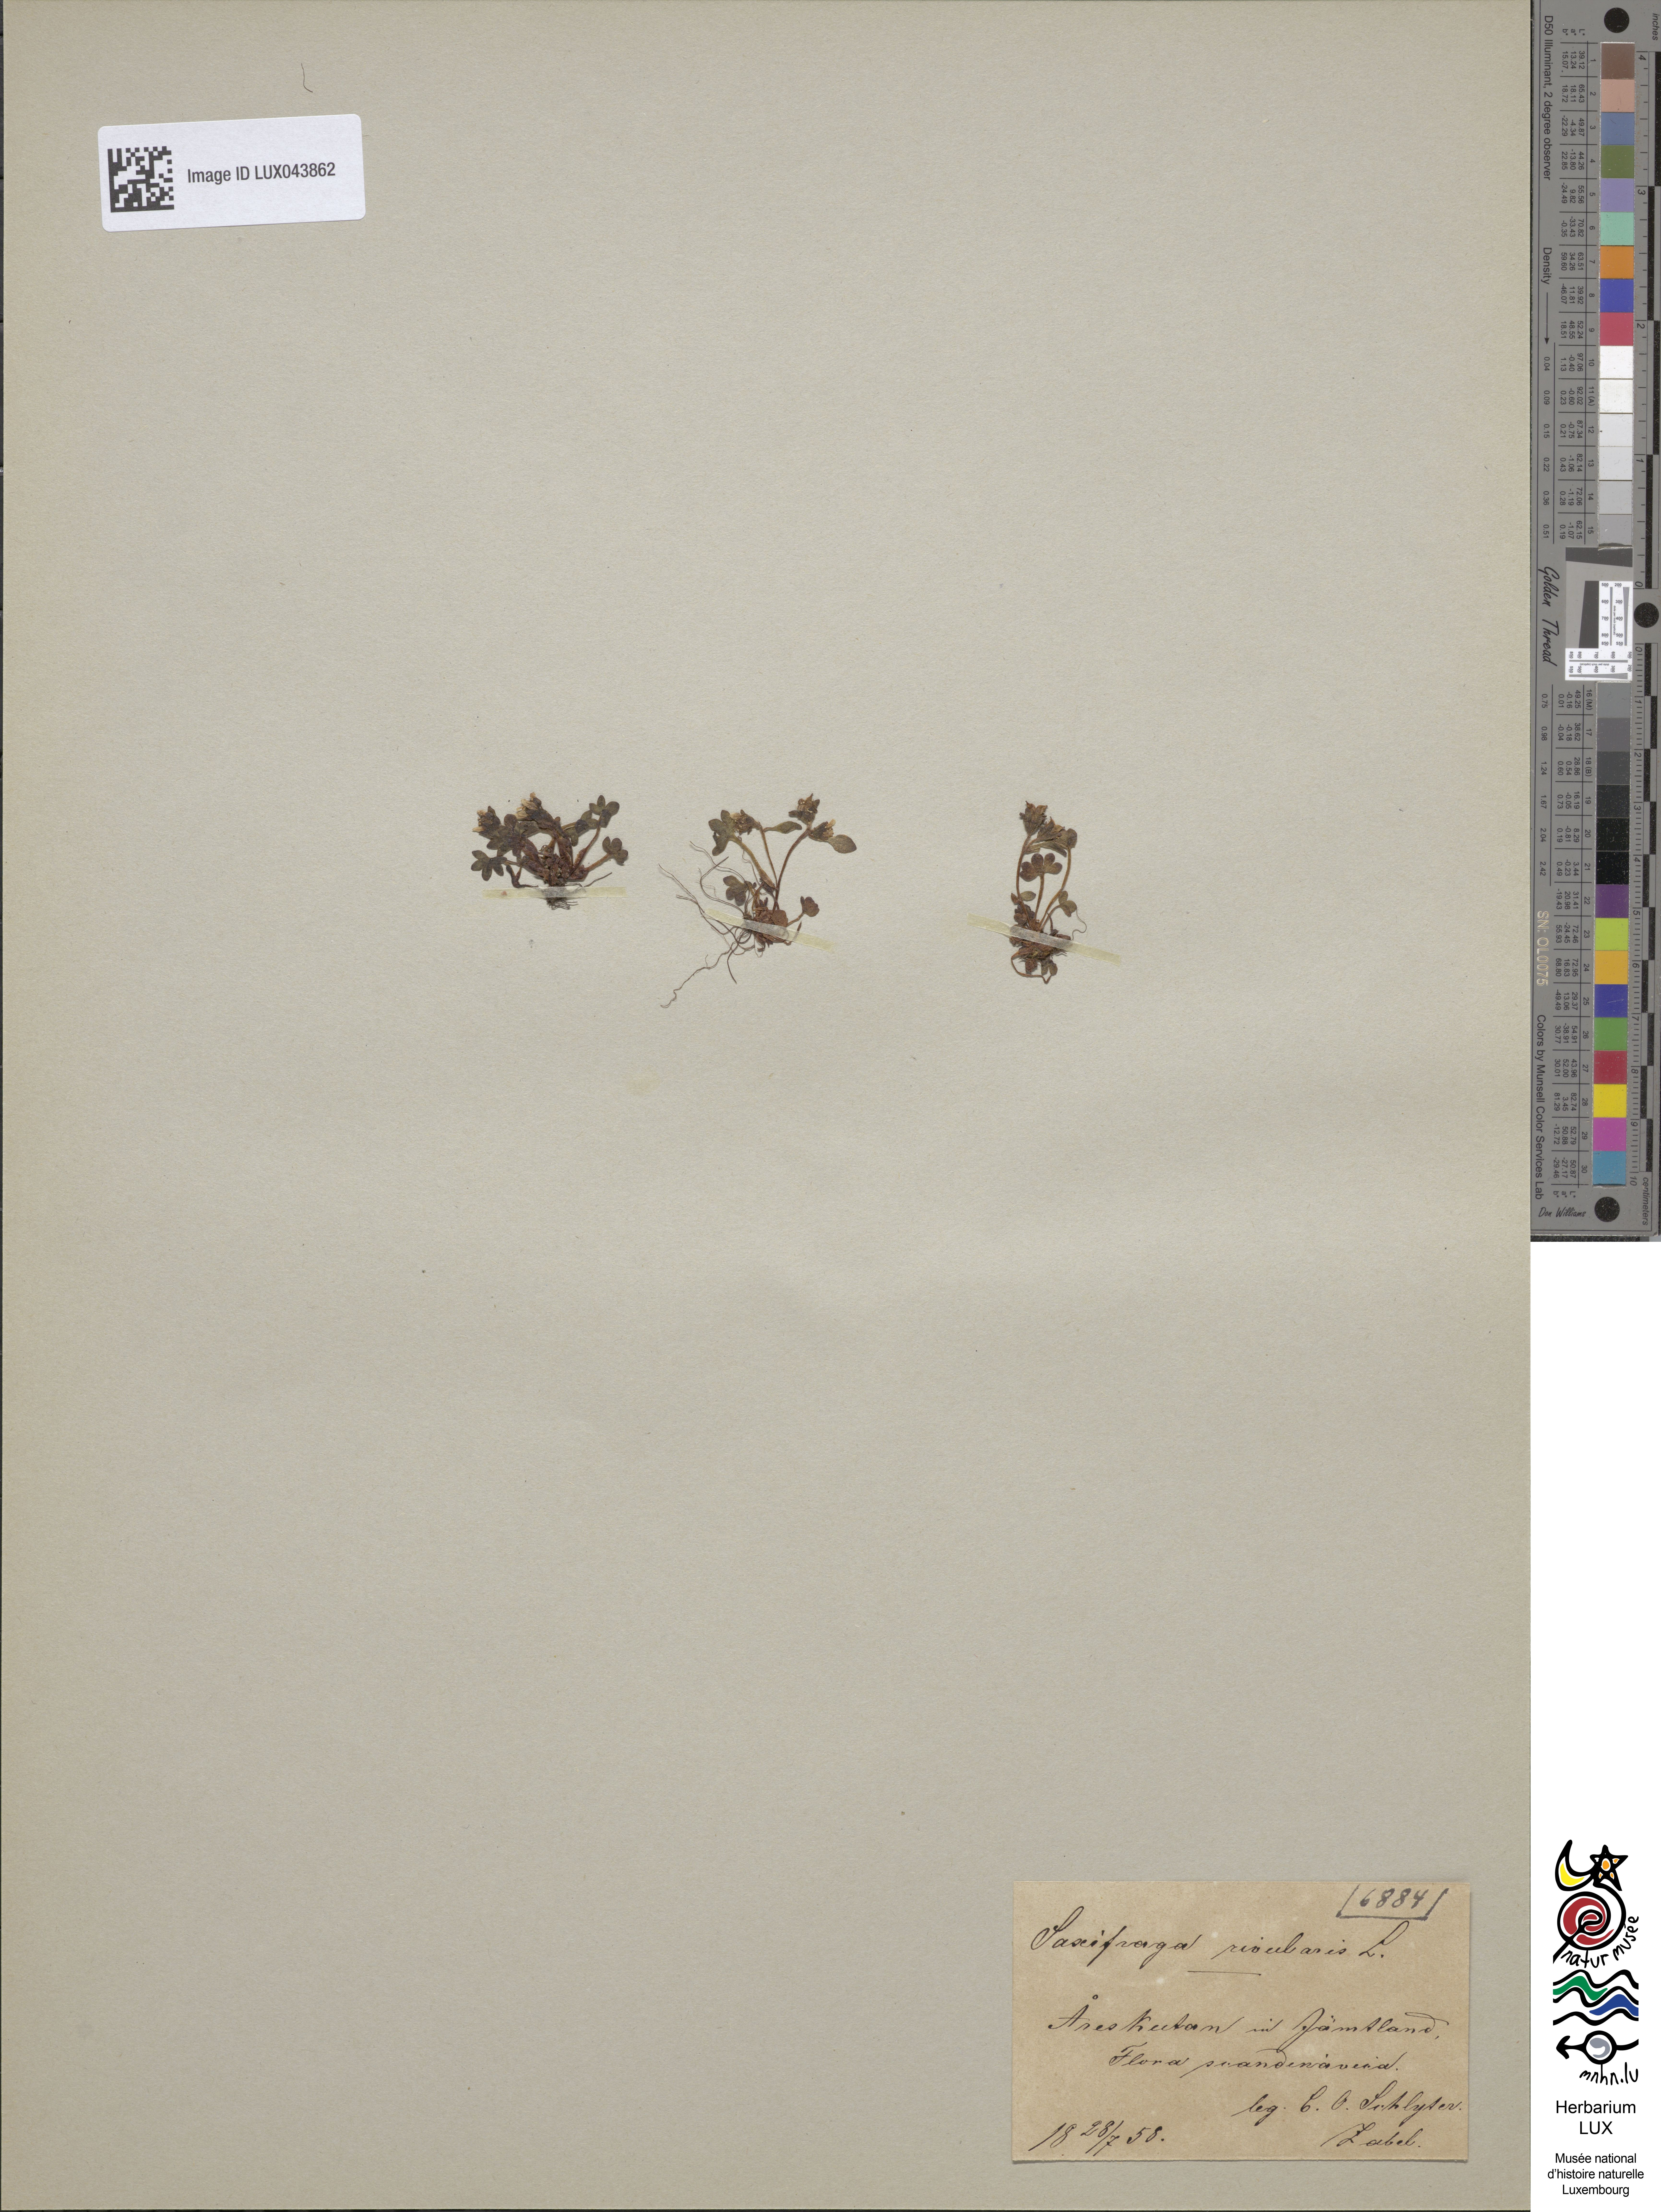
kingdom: Plantae
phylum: Tracheophyta
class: Magnoliopsida
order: Saxifragales
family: Saxifragaceae
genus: Saxifraga
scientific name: Saxifraga rivularis
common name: Highland saxifrage
